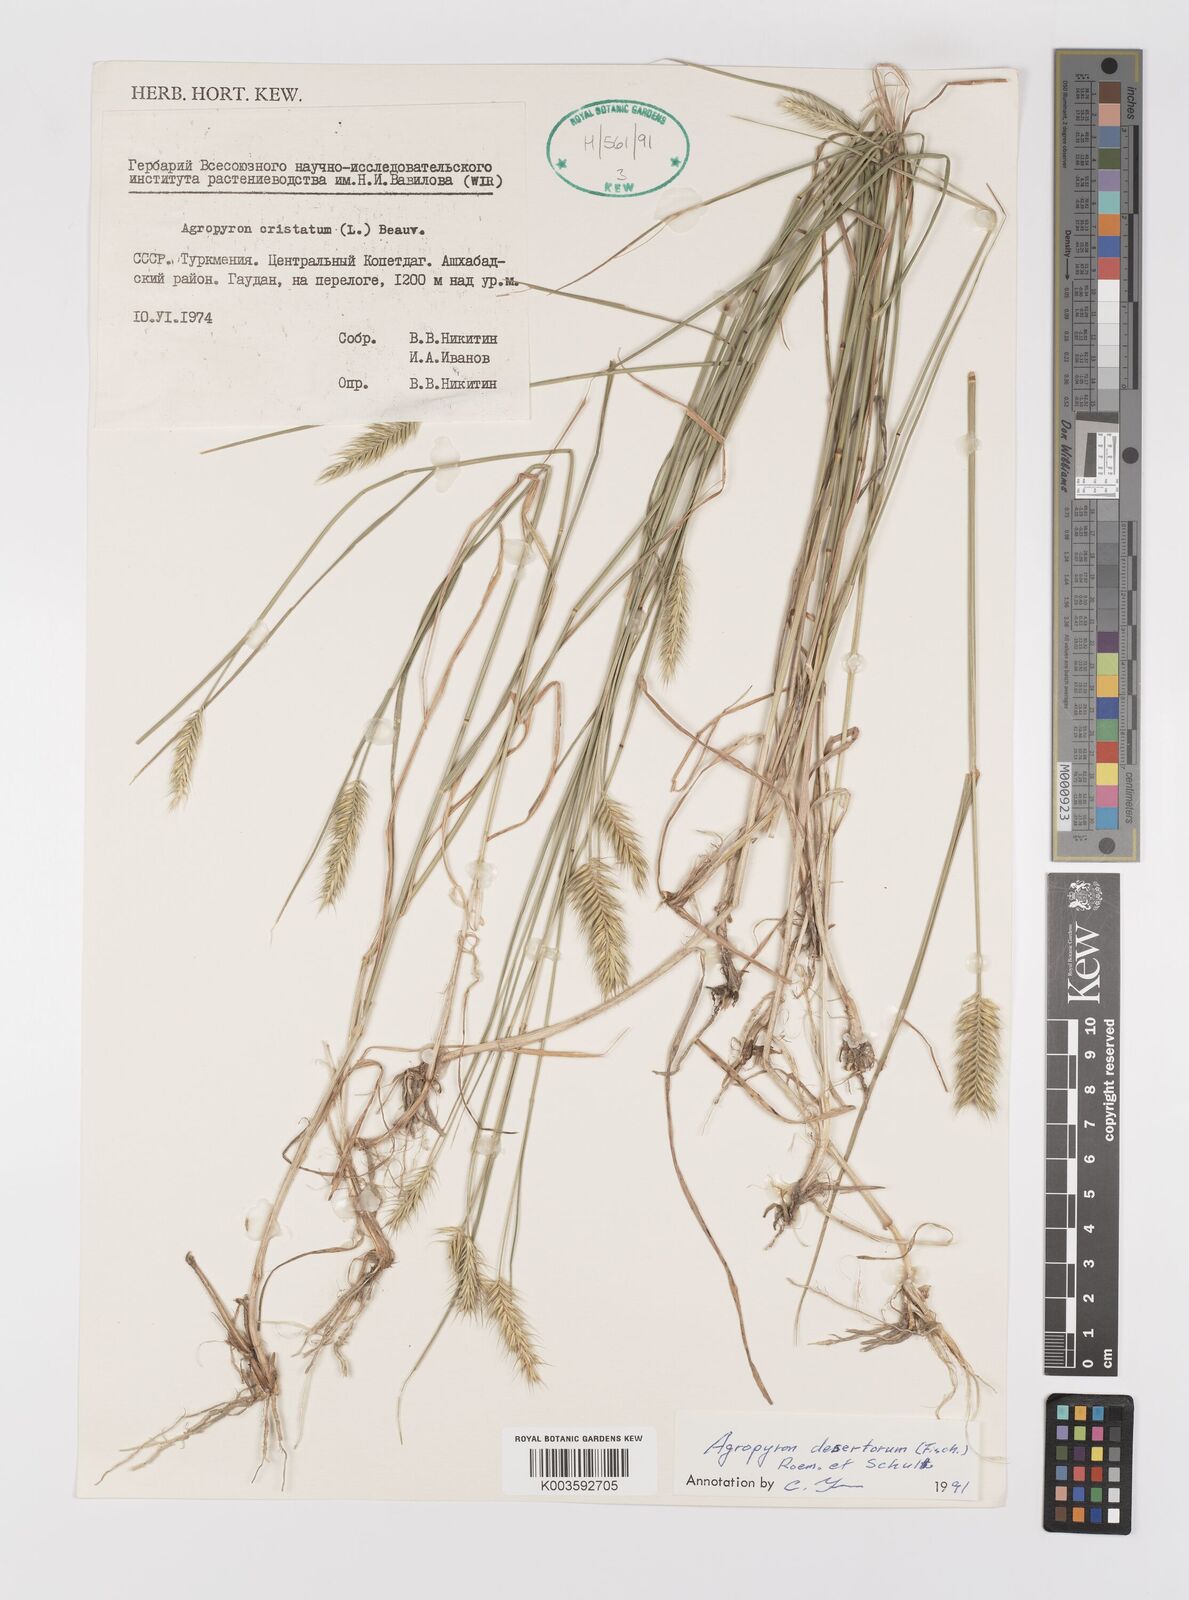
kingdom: Plantae
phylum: Tracheophyta
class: Liliopsida
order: Poales
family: Poaceae
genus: Agropyron
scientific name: Agropyron desertorum
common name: Desert wheatgrass
